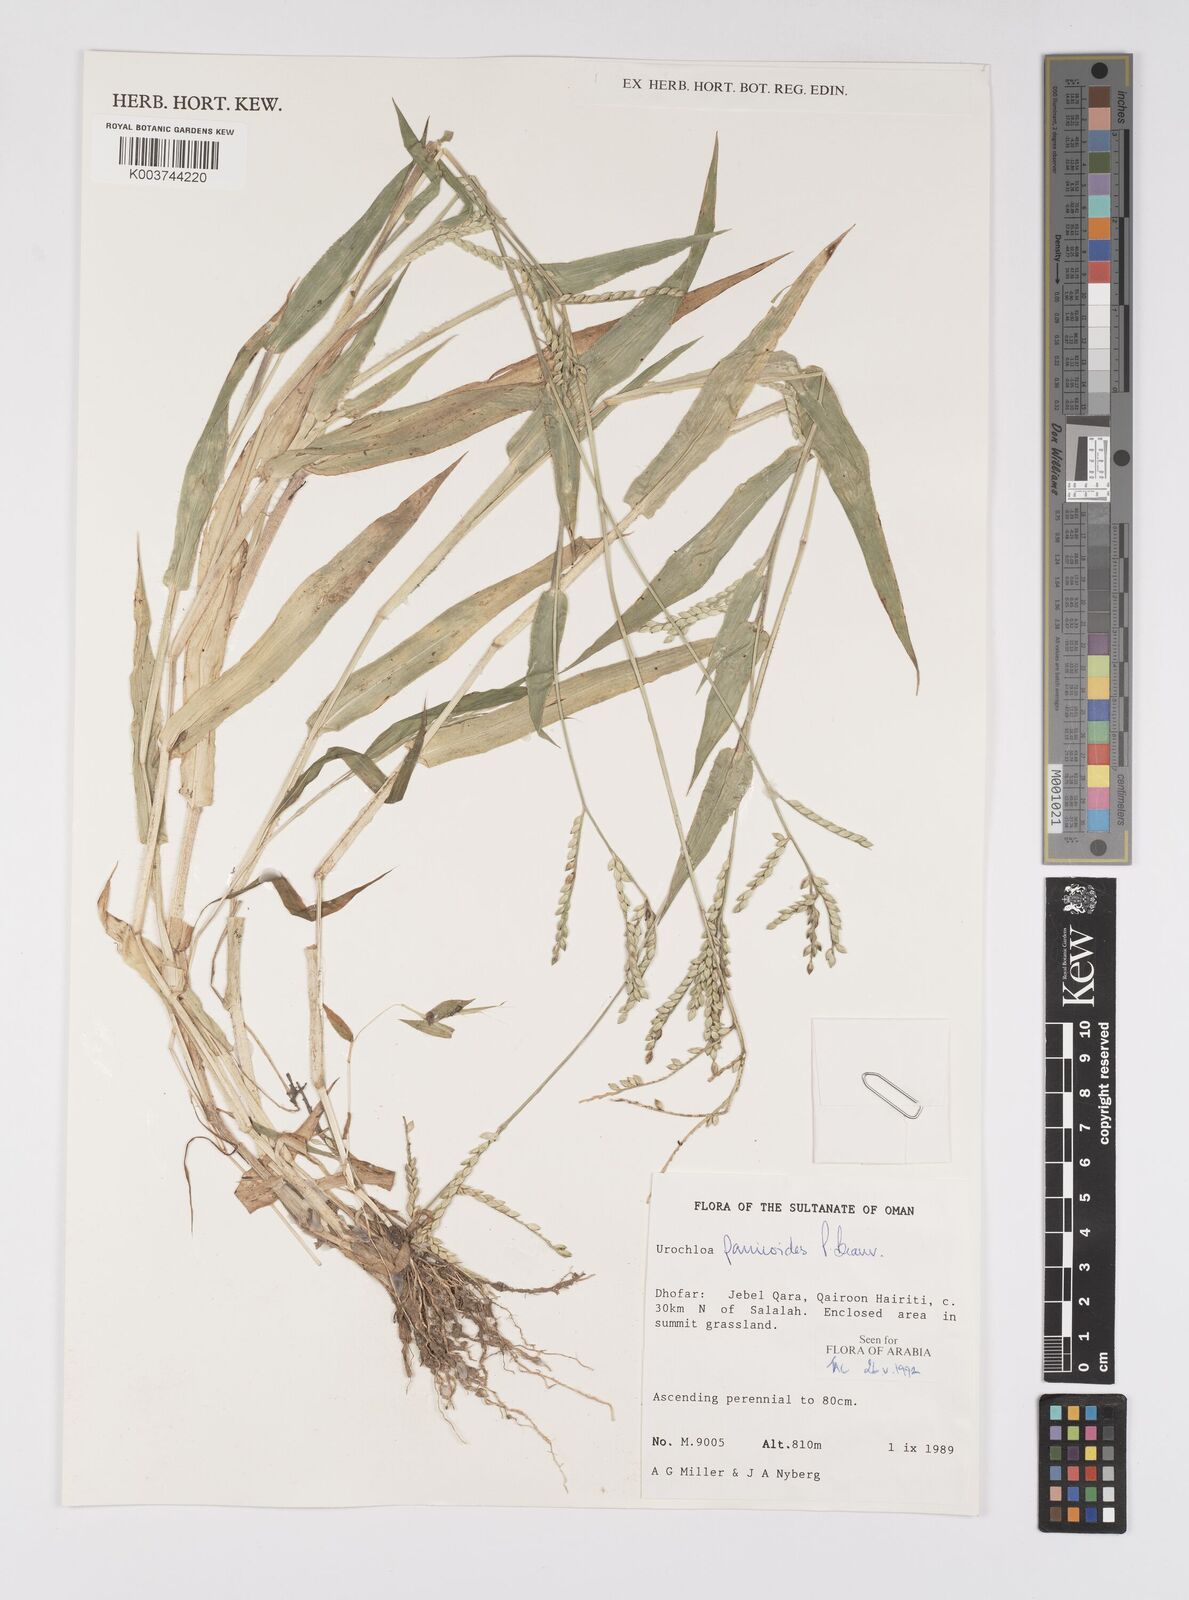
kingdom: Plantae
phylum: Tracheophyta
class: Liliopsida
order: Poales
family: Poaceae
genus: Urochloa
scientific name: Urochloa panicoides
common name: Sharp-flowered signal-grass
